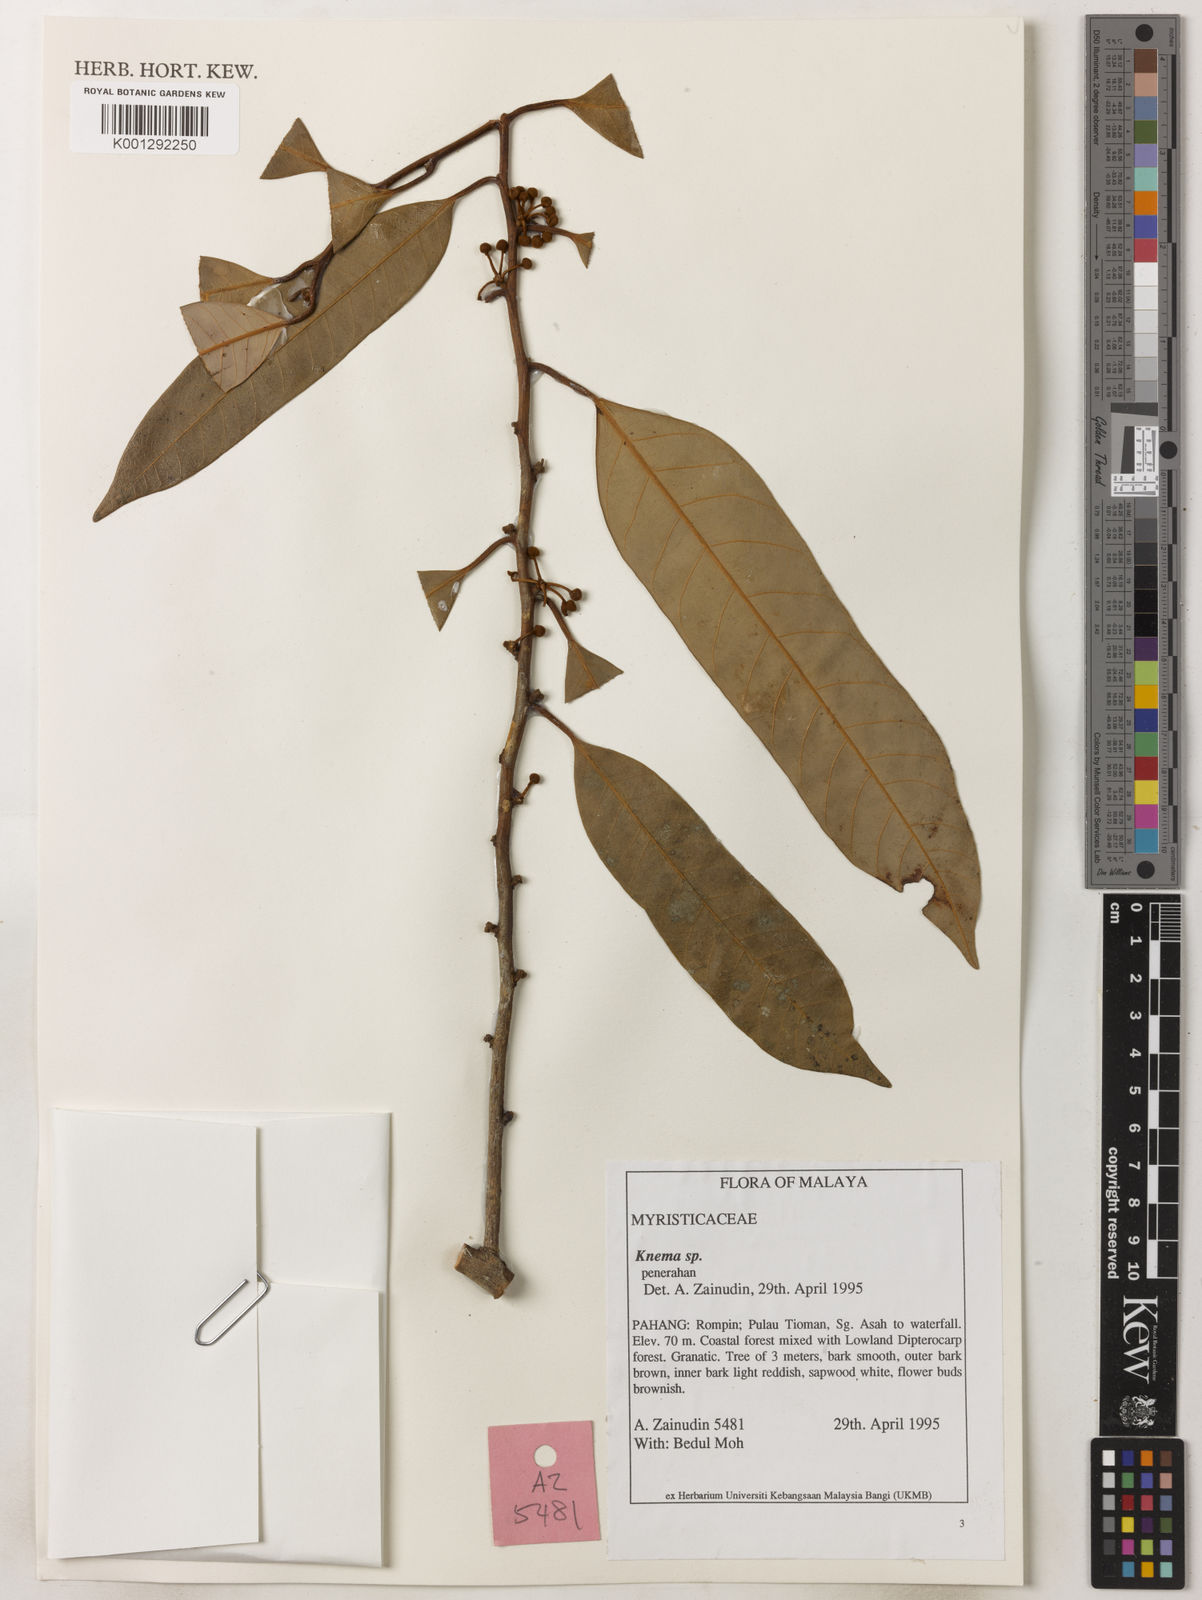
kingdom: Plantae
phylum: Tracheophyta
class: Magnoliopsida
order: Magnoliales
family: Myristicaceae
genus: Knema
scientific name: Knema
